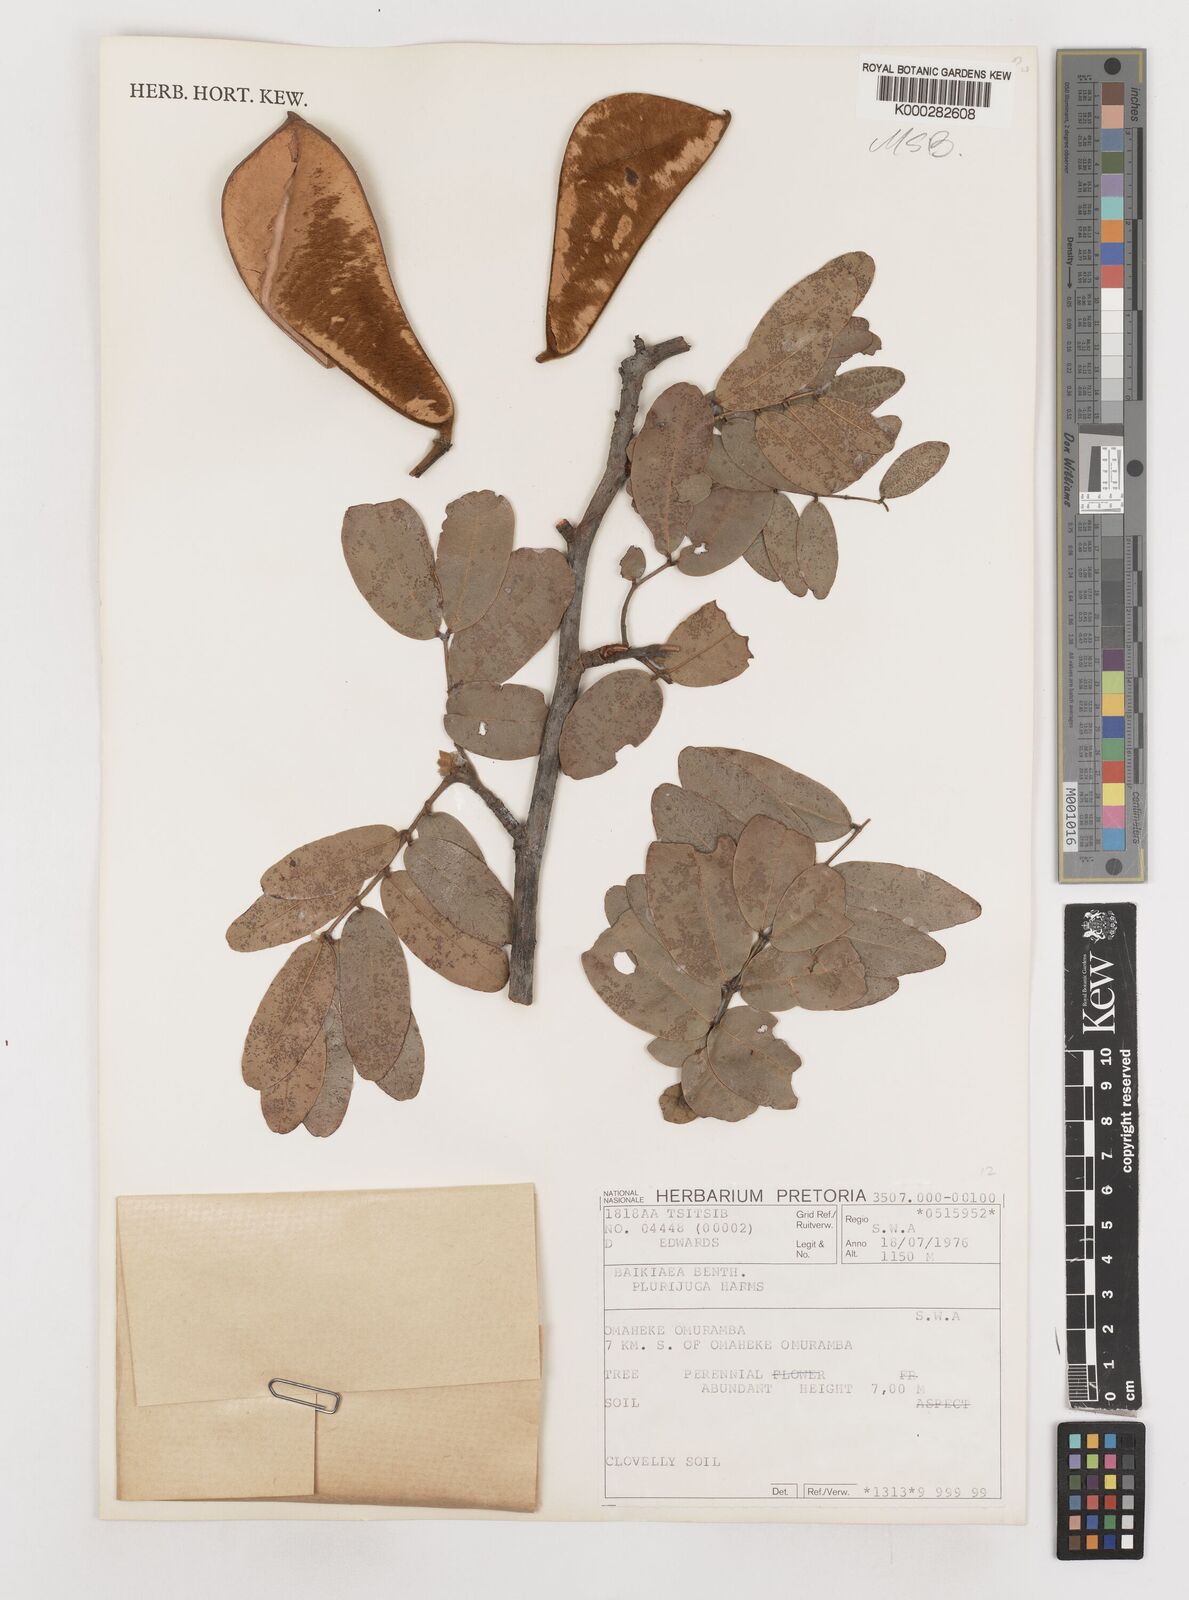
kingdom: Plantae
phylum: Tracheophyta
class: Magnoliopsida
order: Fabales
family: Fabaceae
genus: Baikiaea
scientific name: Baikiaea plurijuga
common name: Rhodesian-teak
